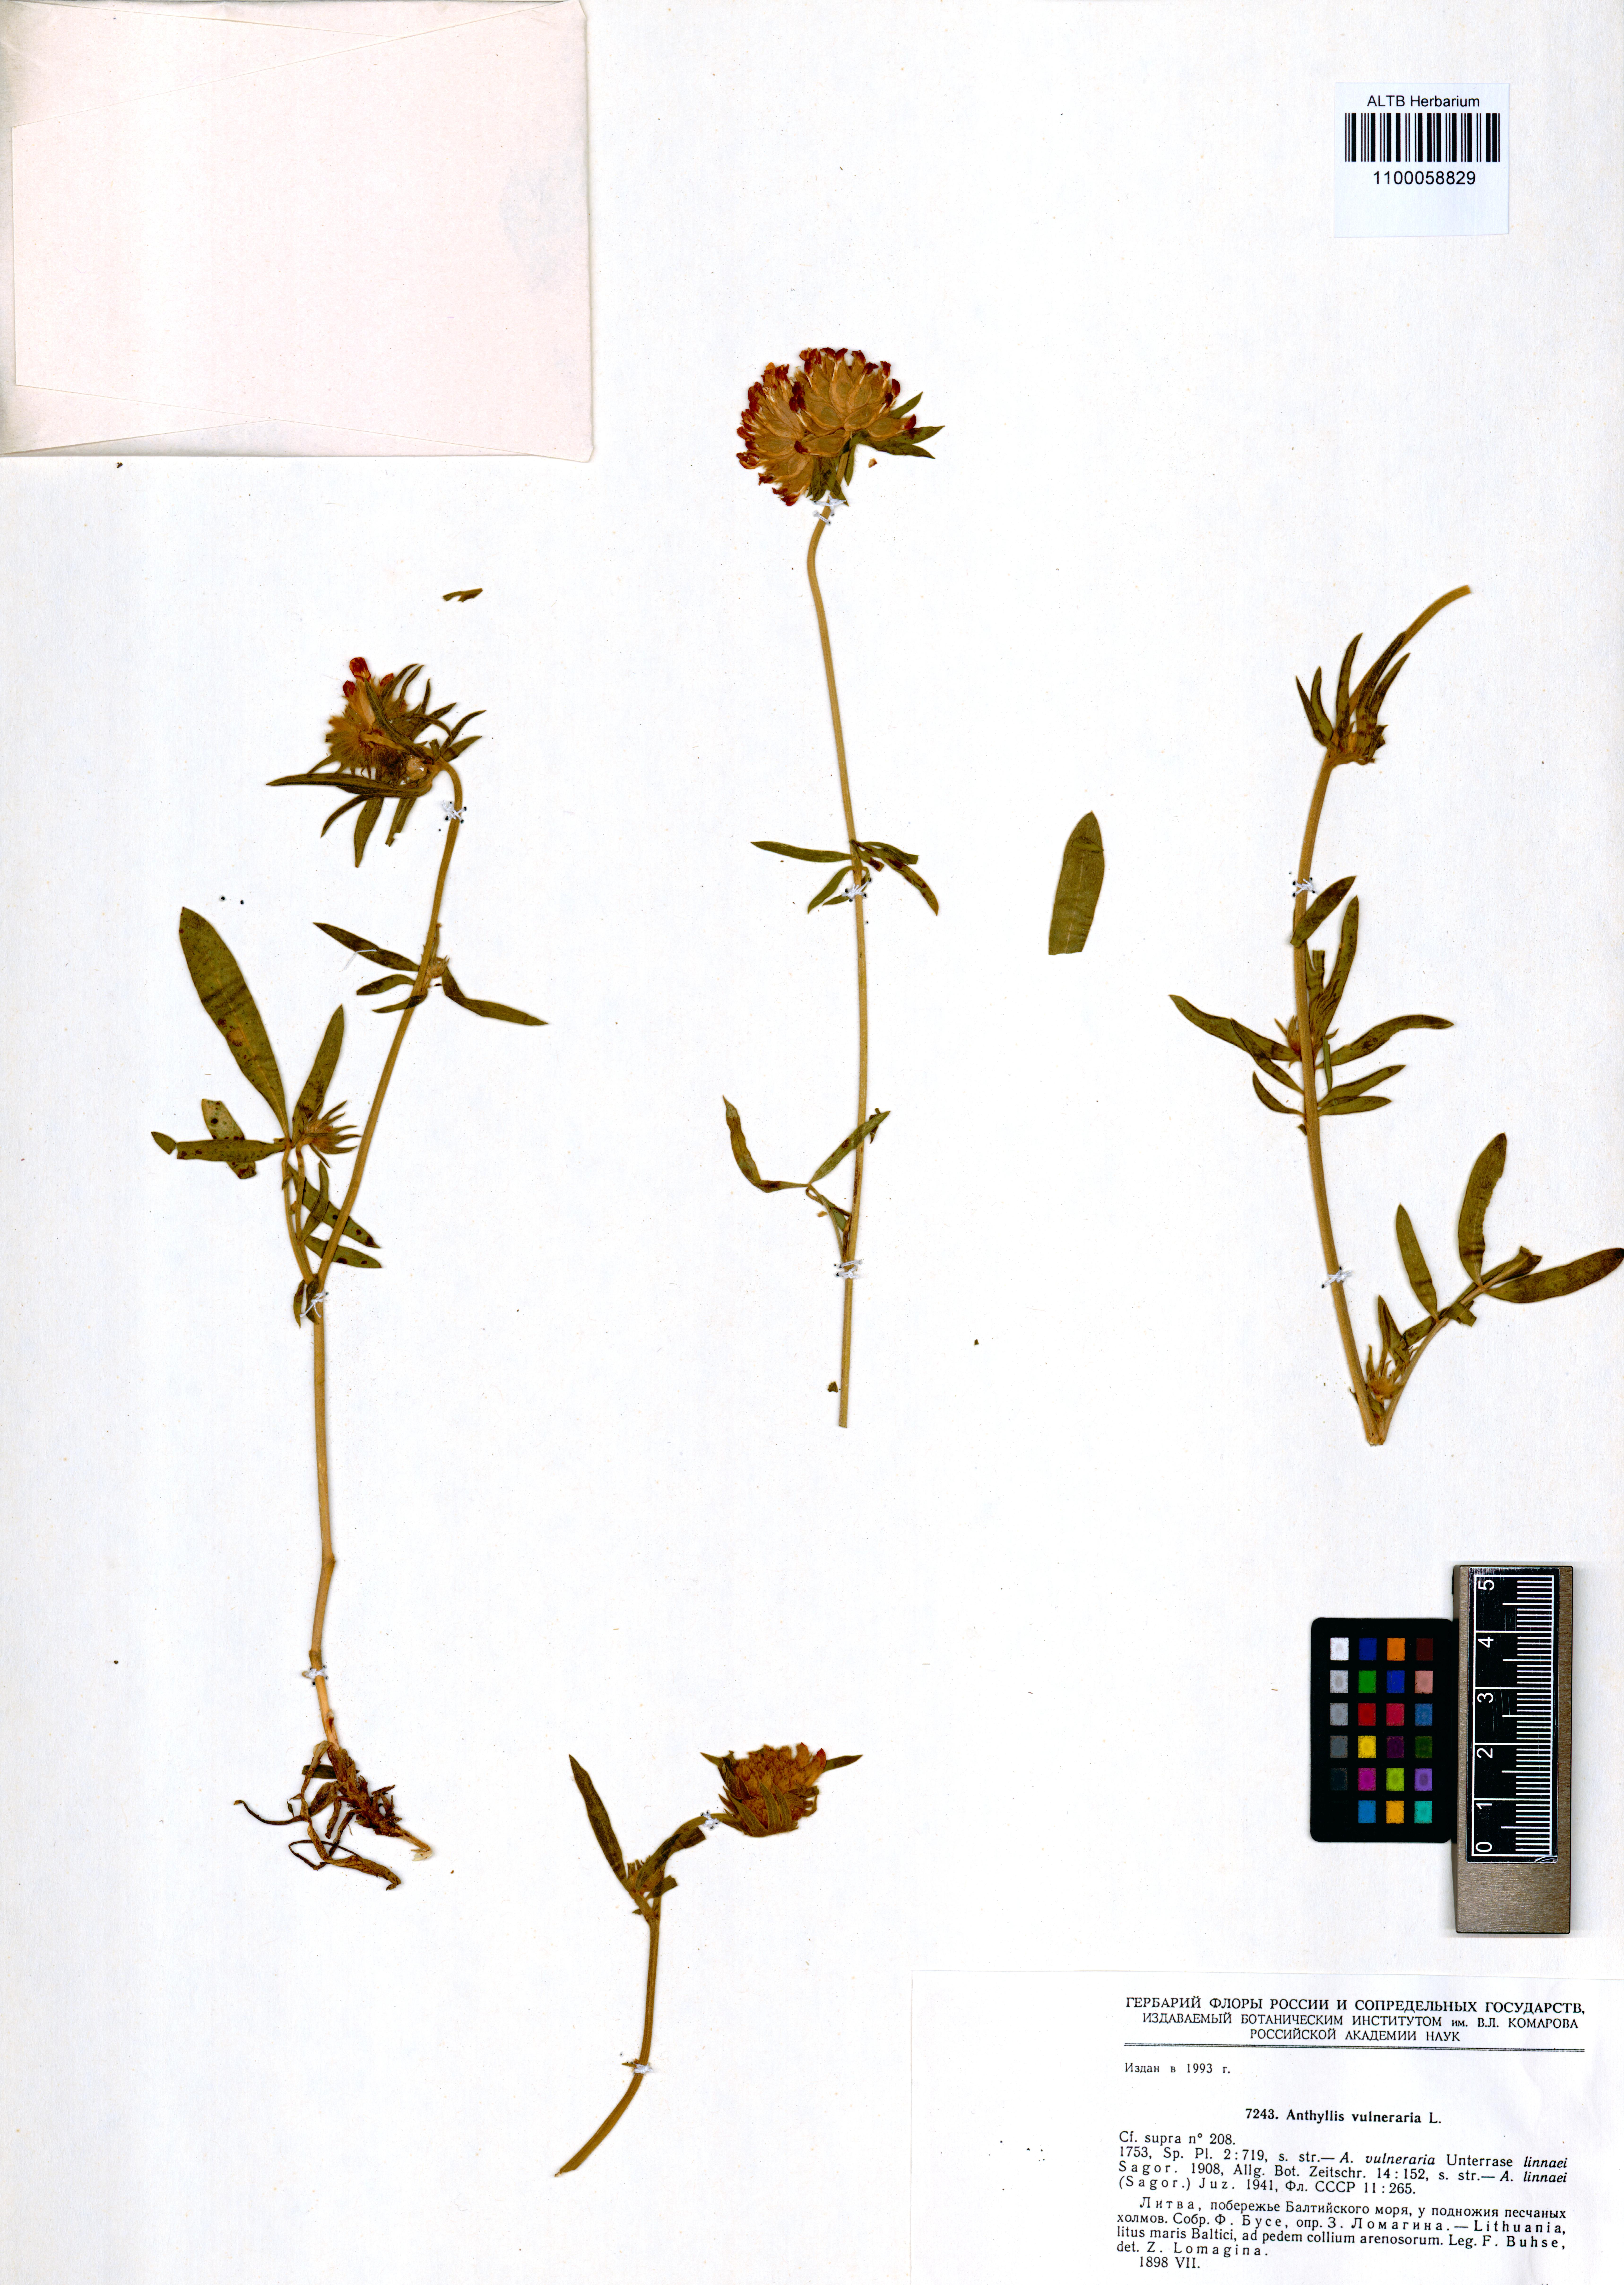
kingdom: Plantae
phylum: Tracheophyta
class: Magnoliopsida
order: Fabales
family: Fabaceae
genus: Anthyllis
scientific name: Anthyllis vulneraria
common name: Kidney vetch
